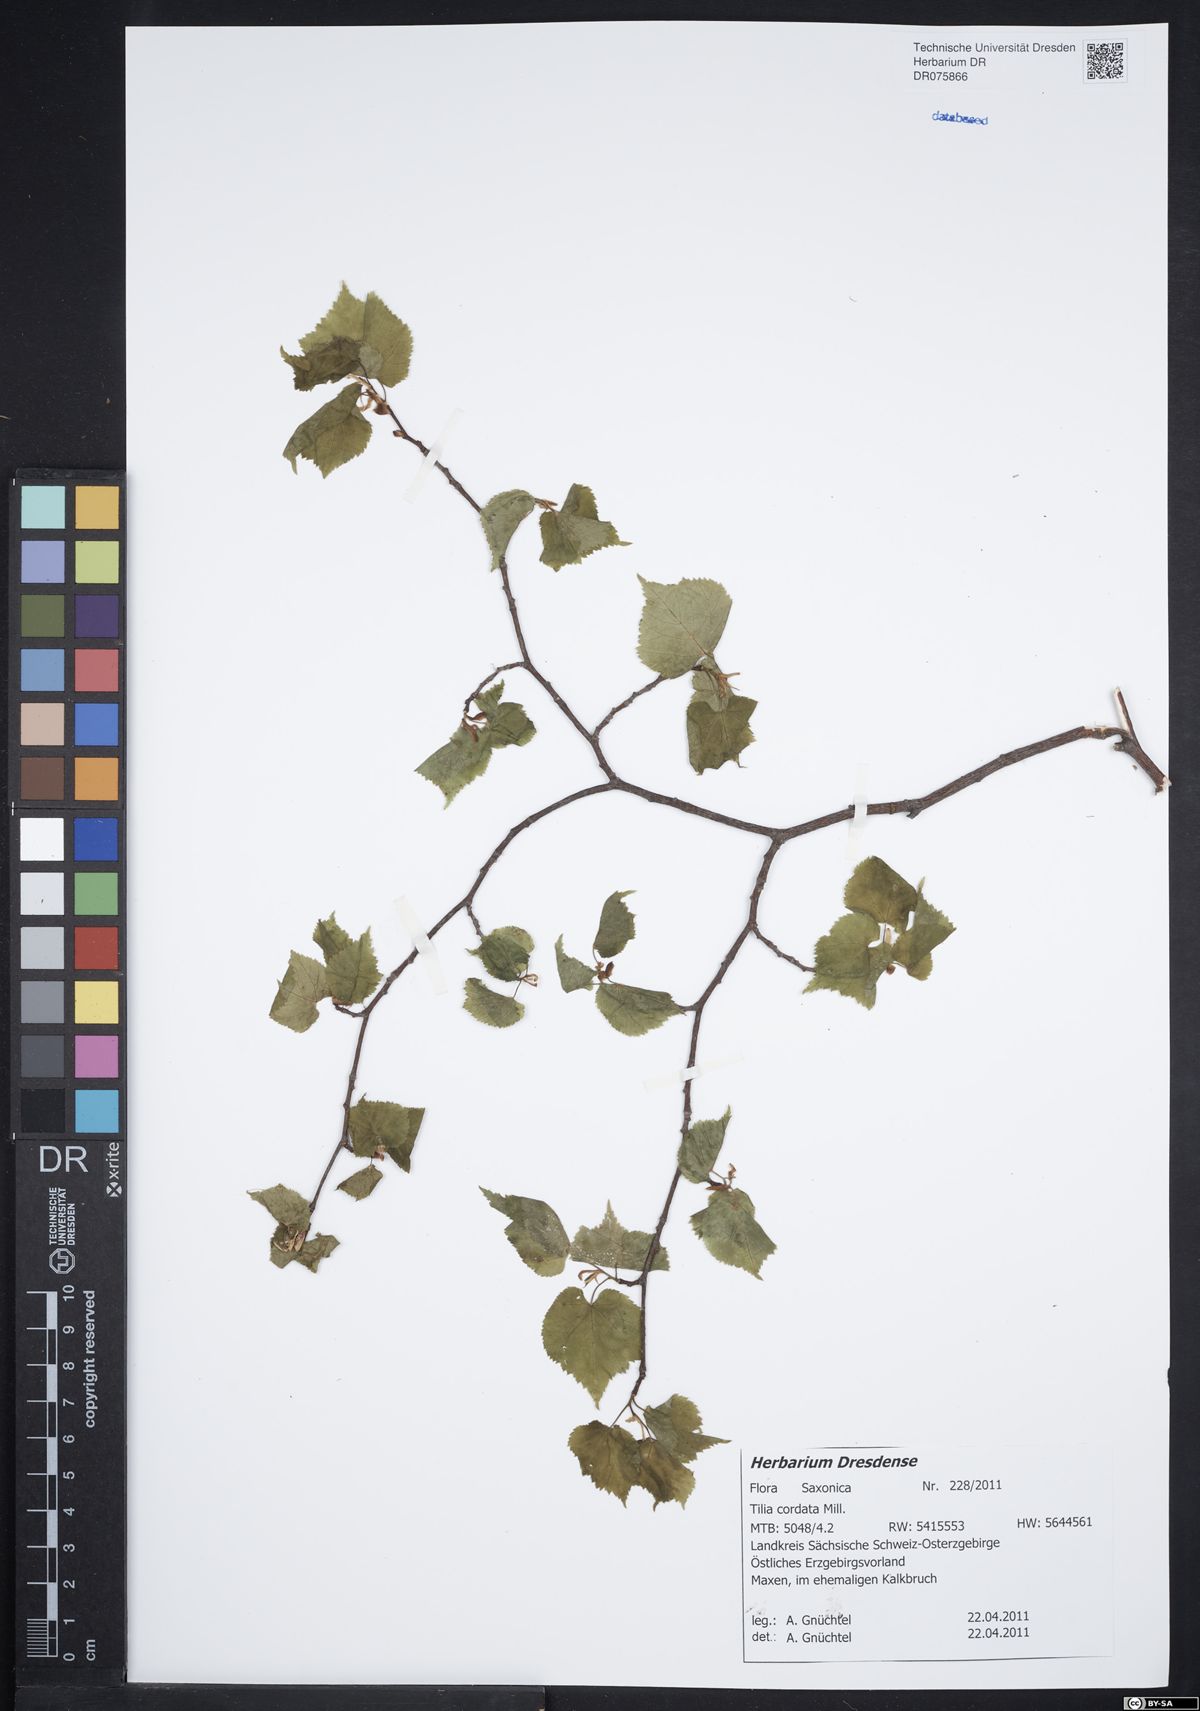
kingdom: Plantae
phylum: Tracheophyta
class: Magnoliopsida
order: Malvales
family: Malvaceae
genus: Tilia
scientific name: Tilia cordata
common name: Small-leaved lime
